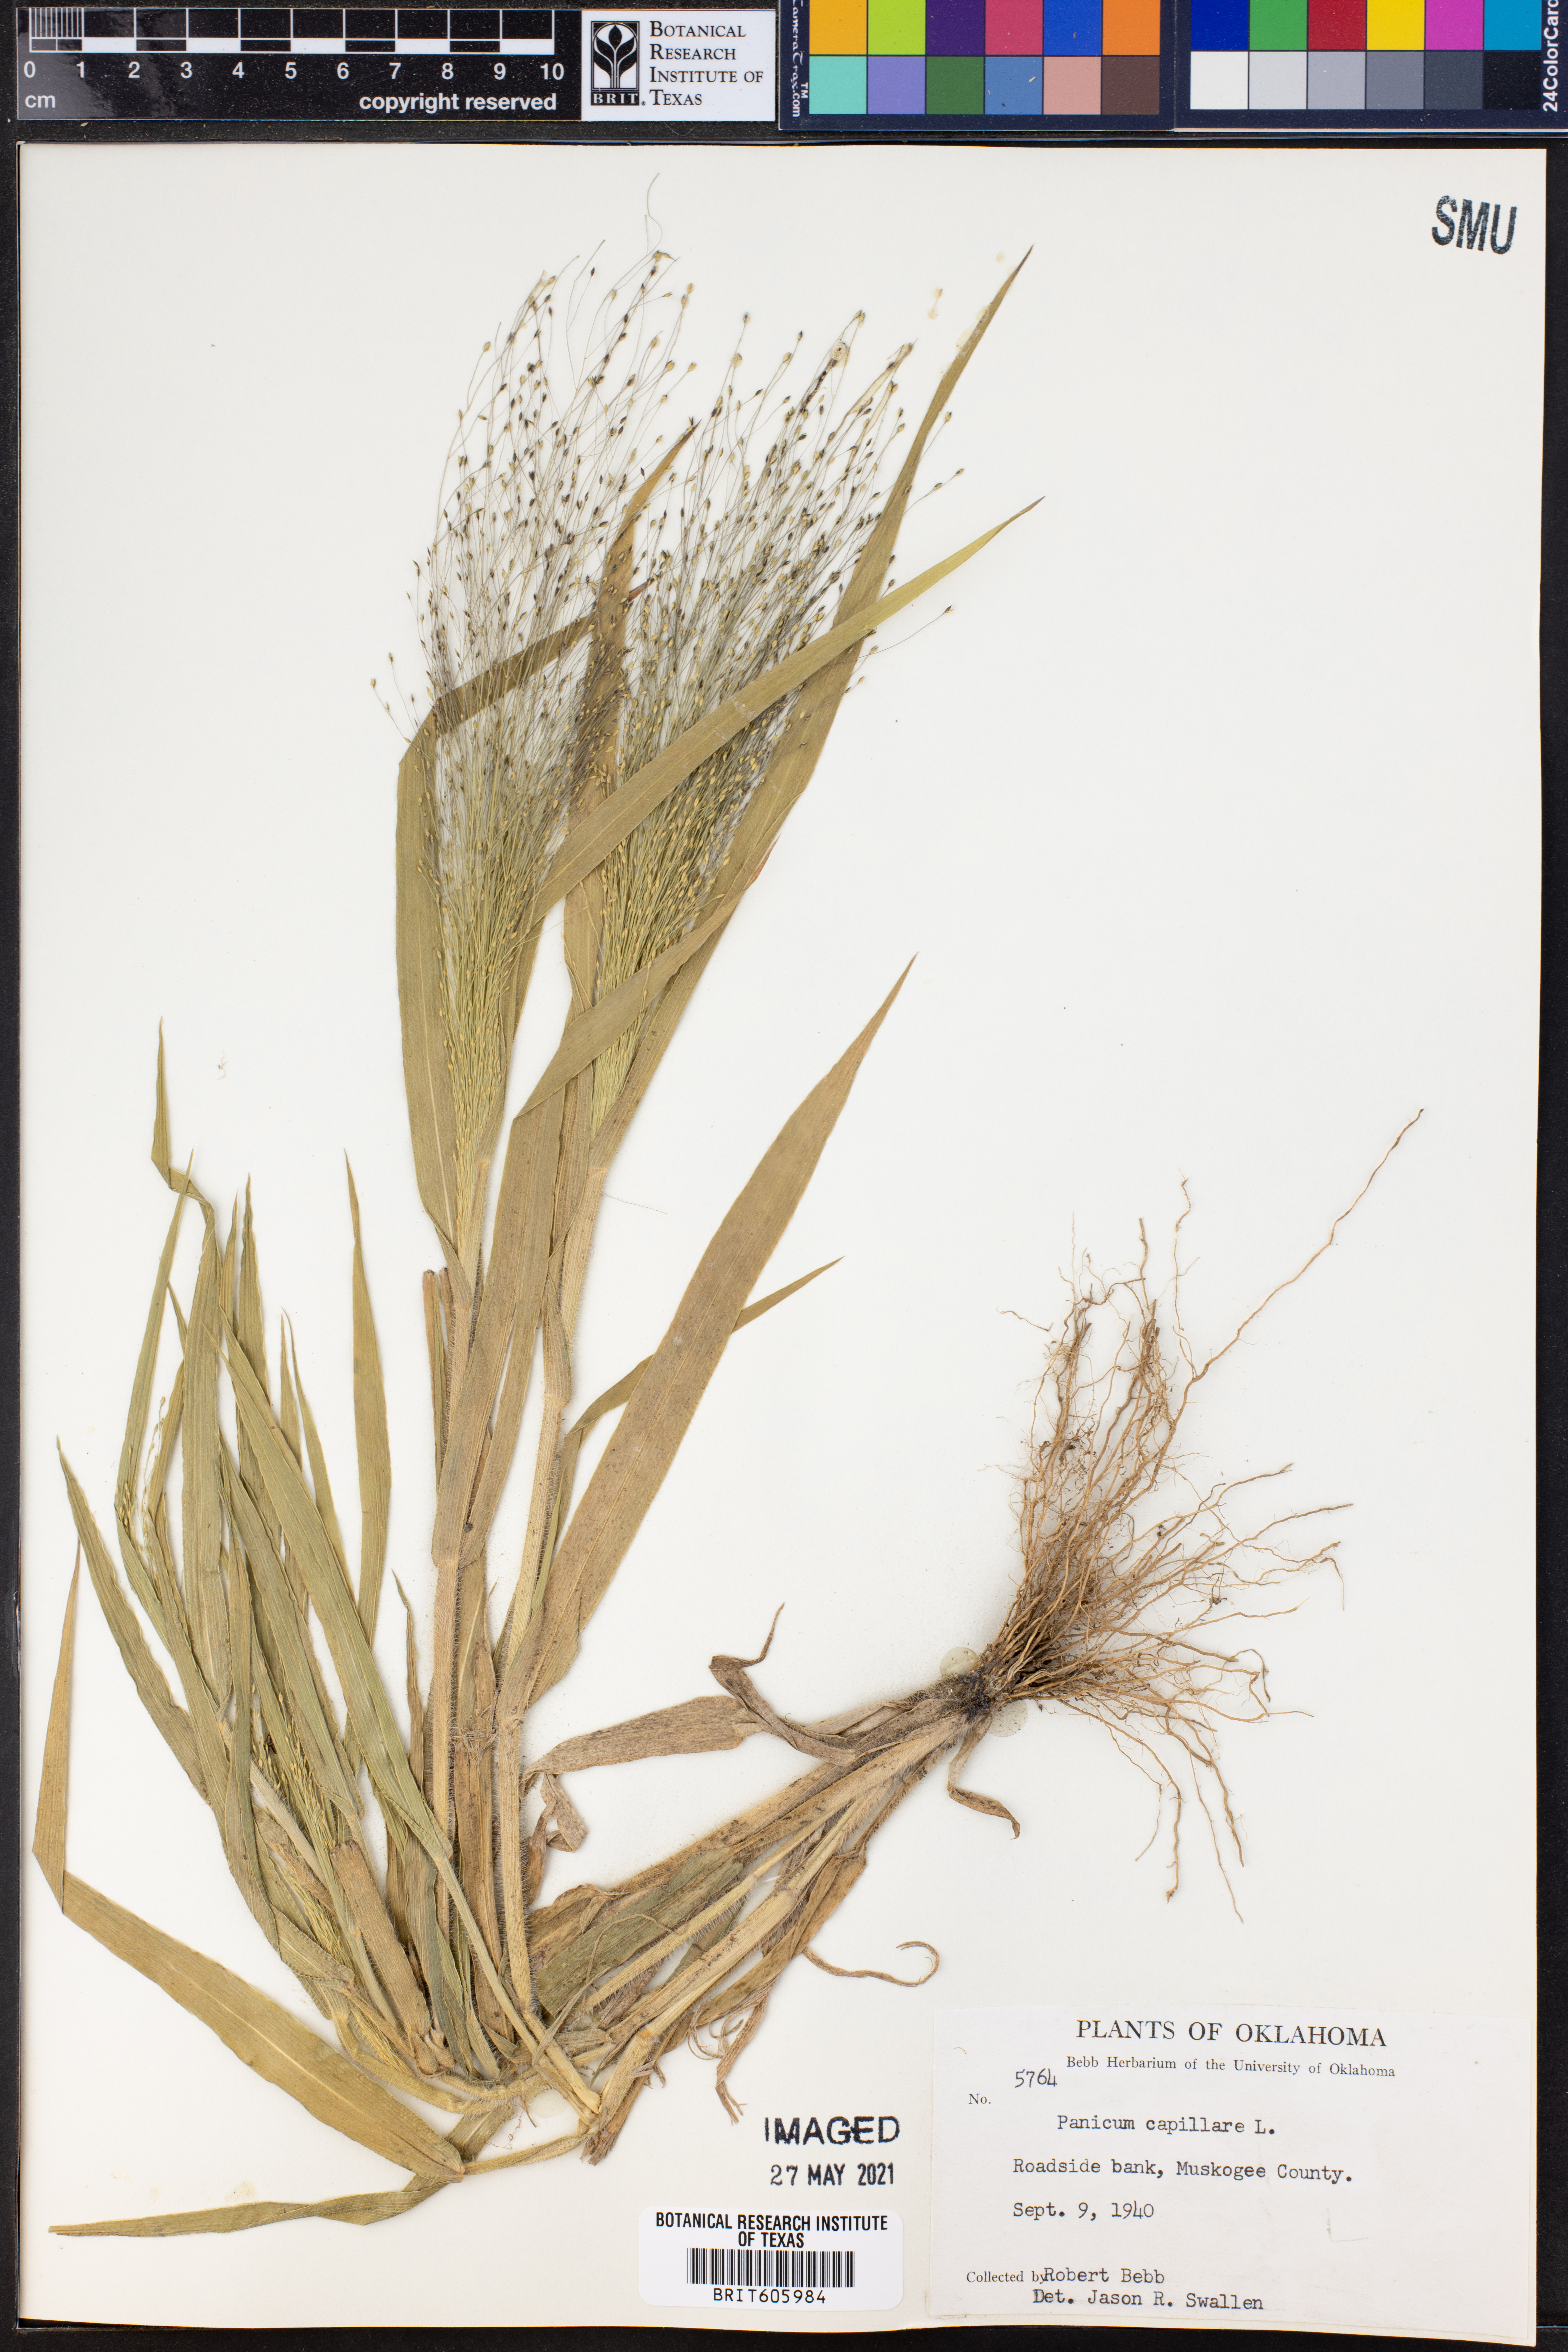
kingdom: Plantae
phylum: Tracheophyta
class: Liliopsida
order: Poales
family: Poaceae
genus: Panicum
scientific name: Panicum capillare
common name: Witch-grass
